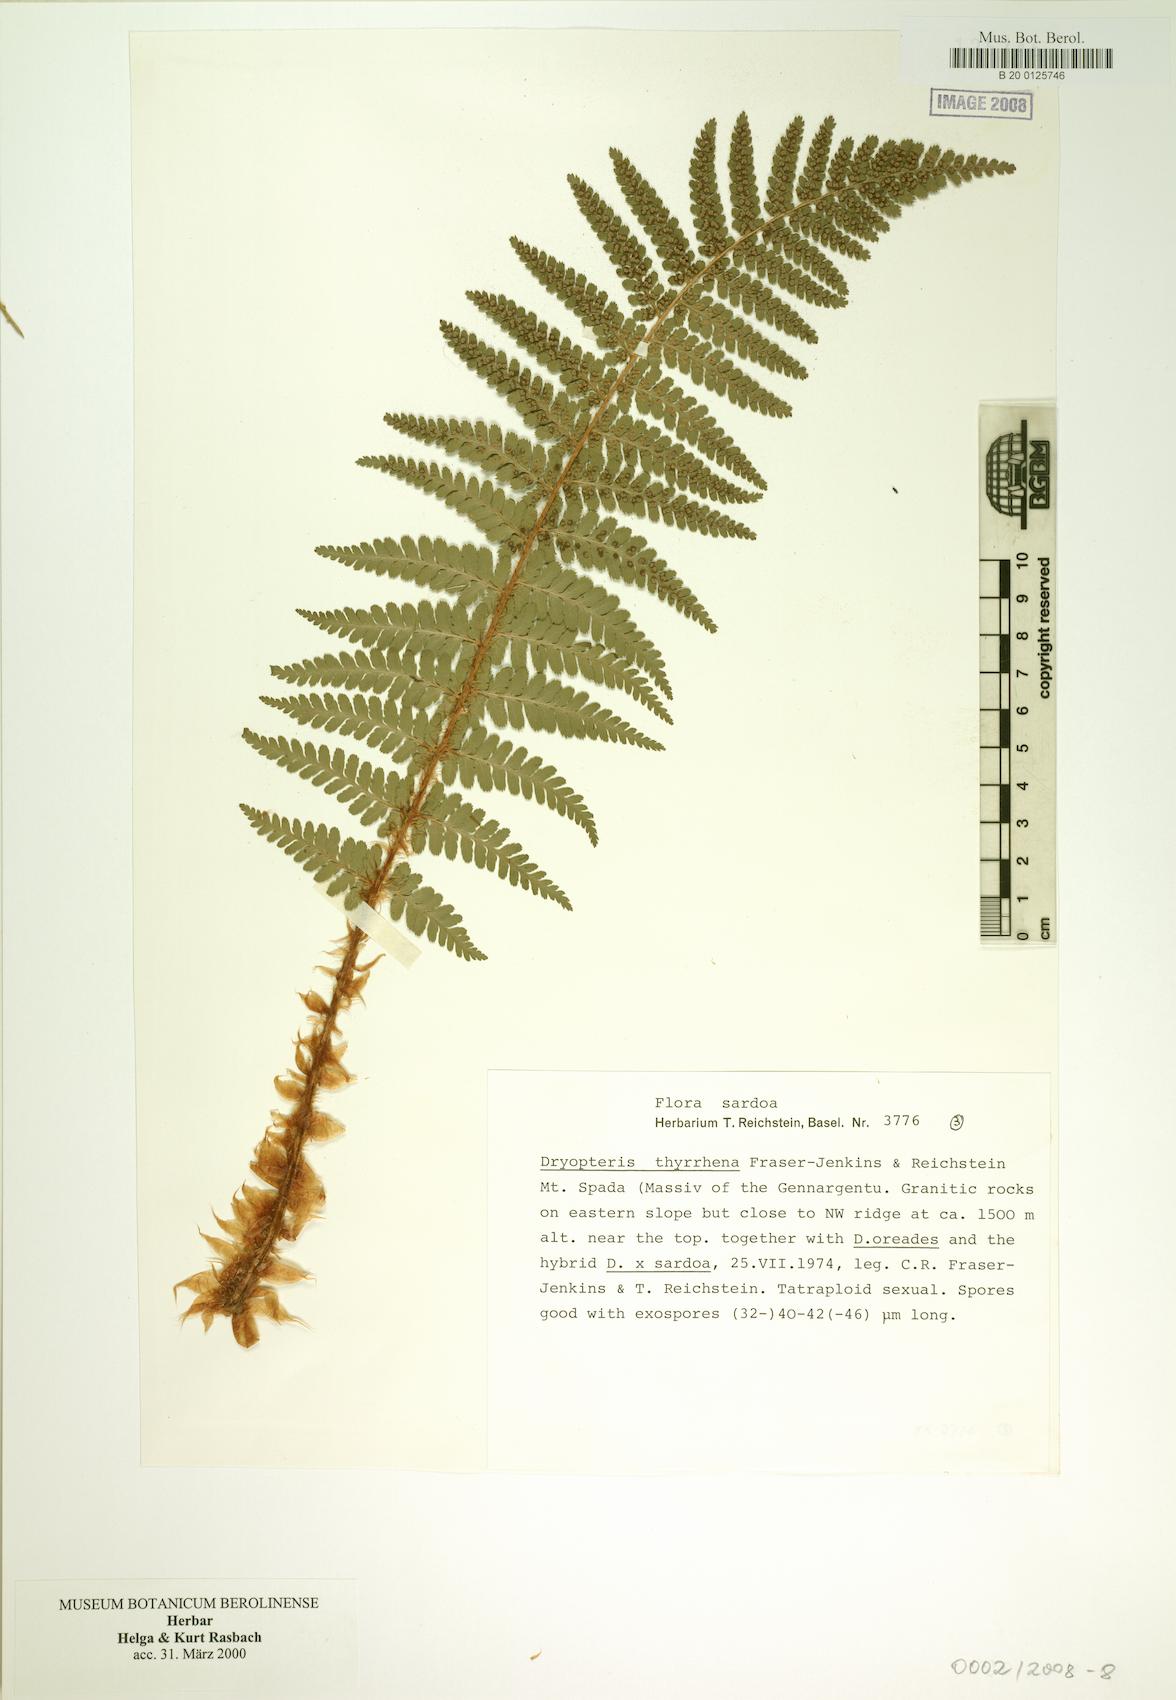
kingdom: Plantae
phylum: Tracheophyta
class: Polypodiopsida
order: Polypodiales
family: Dryopteridaceae
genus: Dryopteris
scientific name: Dryopteris tyrrhena
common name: Mediterranean buckler-fern
